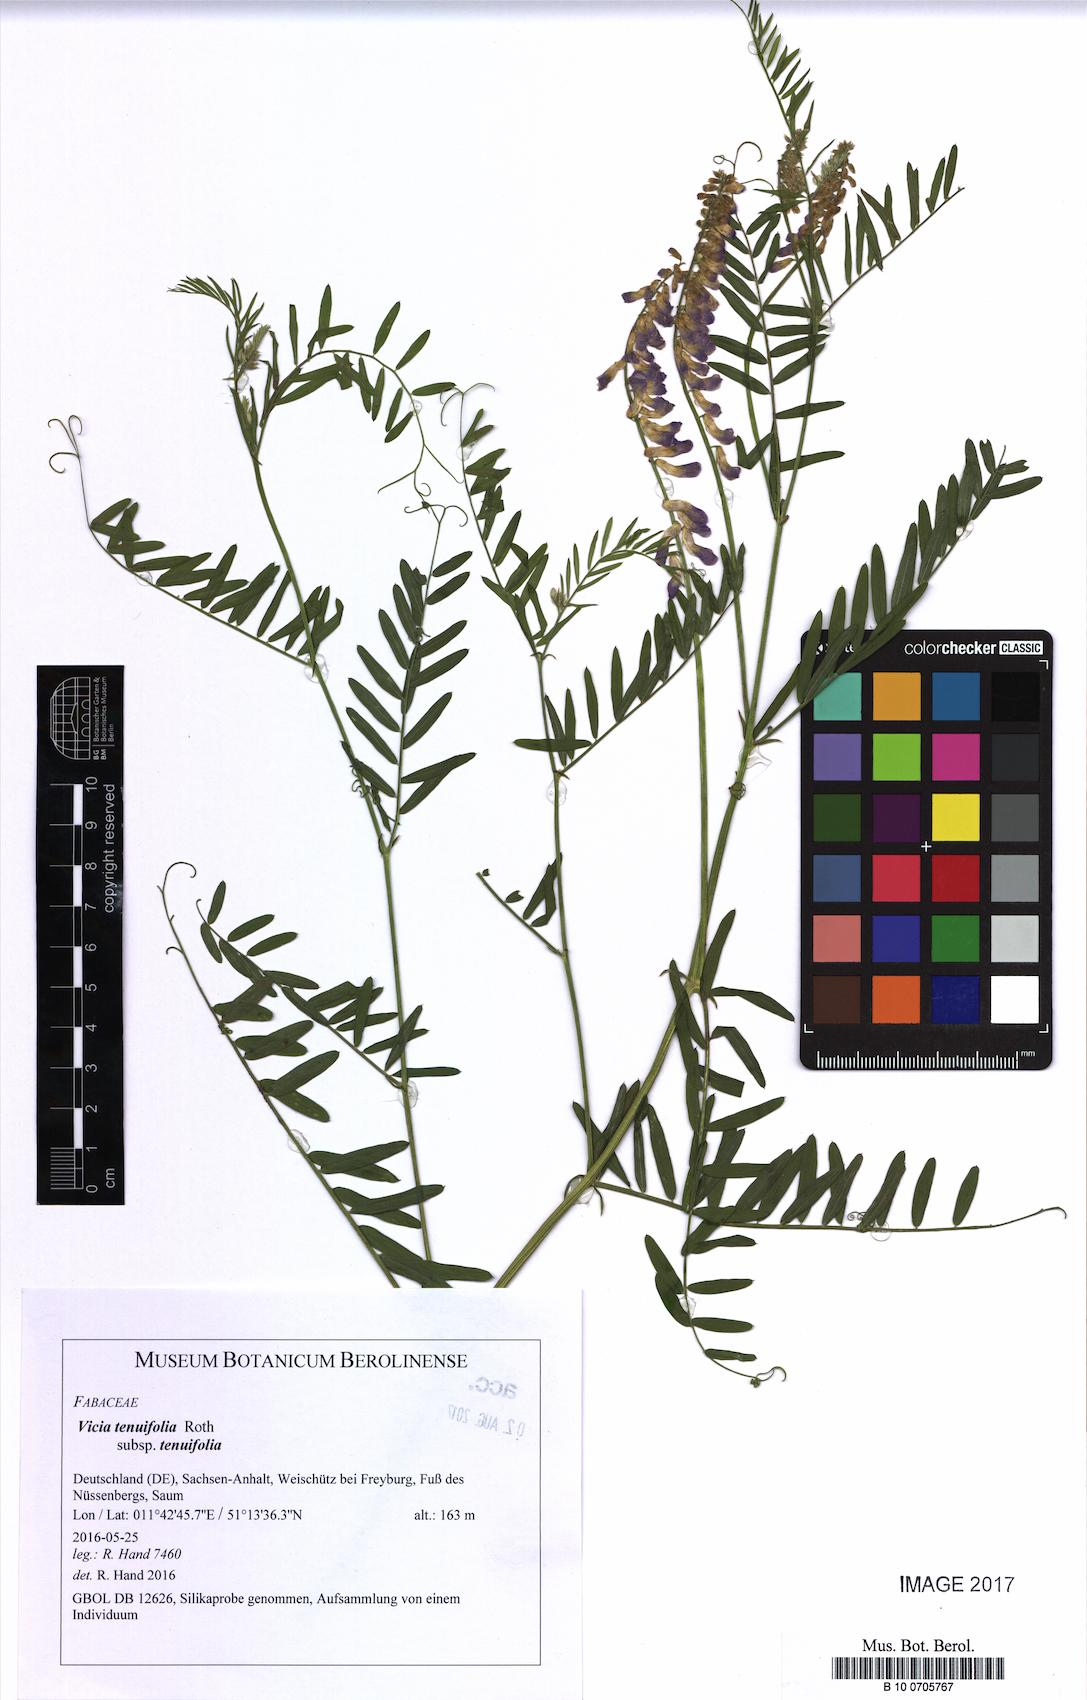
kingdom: Plantae
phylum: Tracheophyta
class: Magnoliopsida
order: Fabales
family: Fabaceae
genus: Vicia
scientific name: Vicia tenuifolia
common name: Fine-leaved vetch
